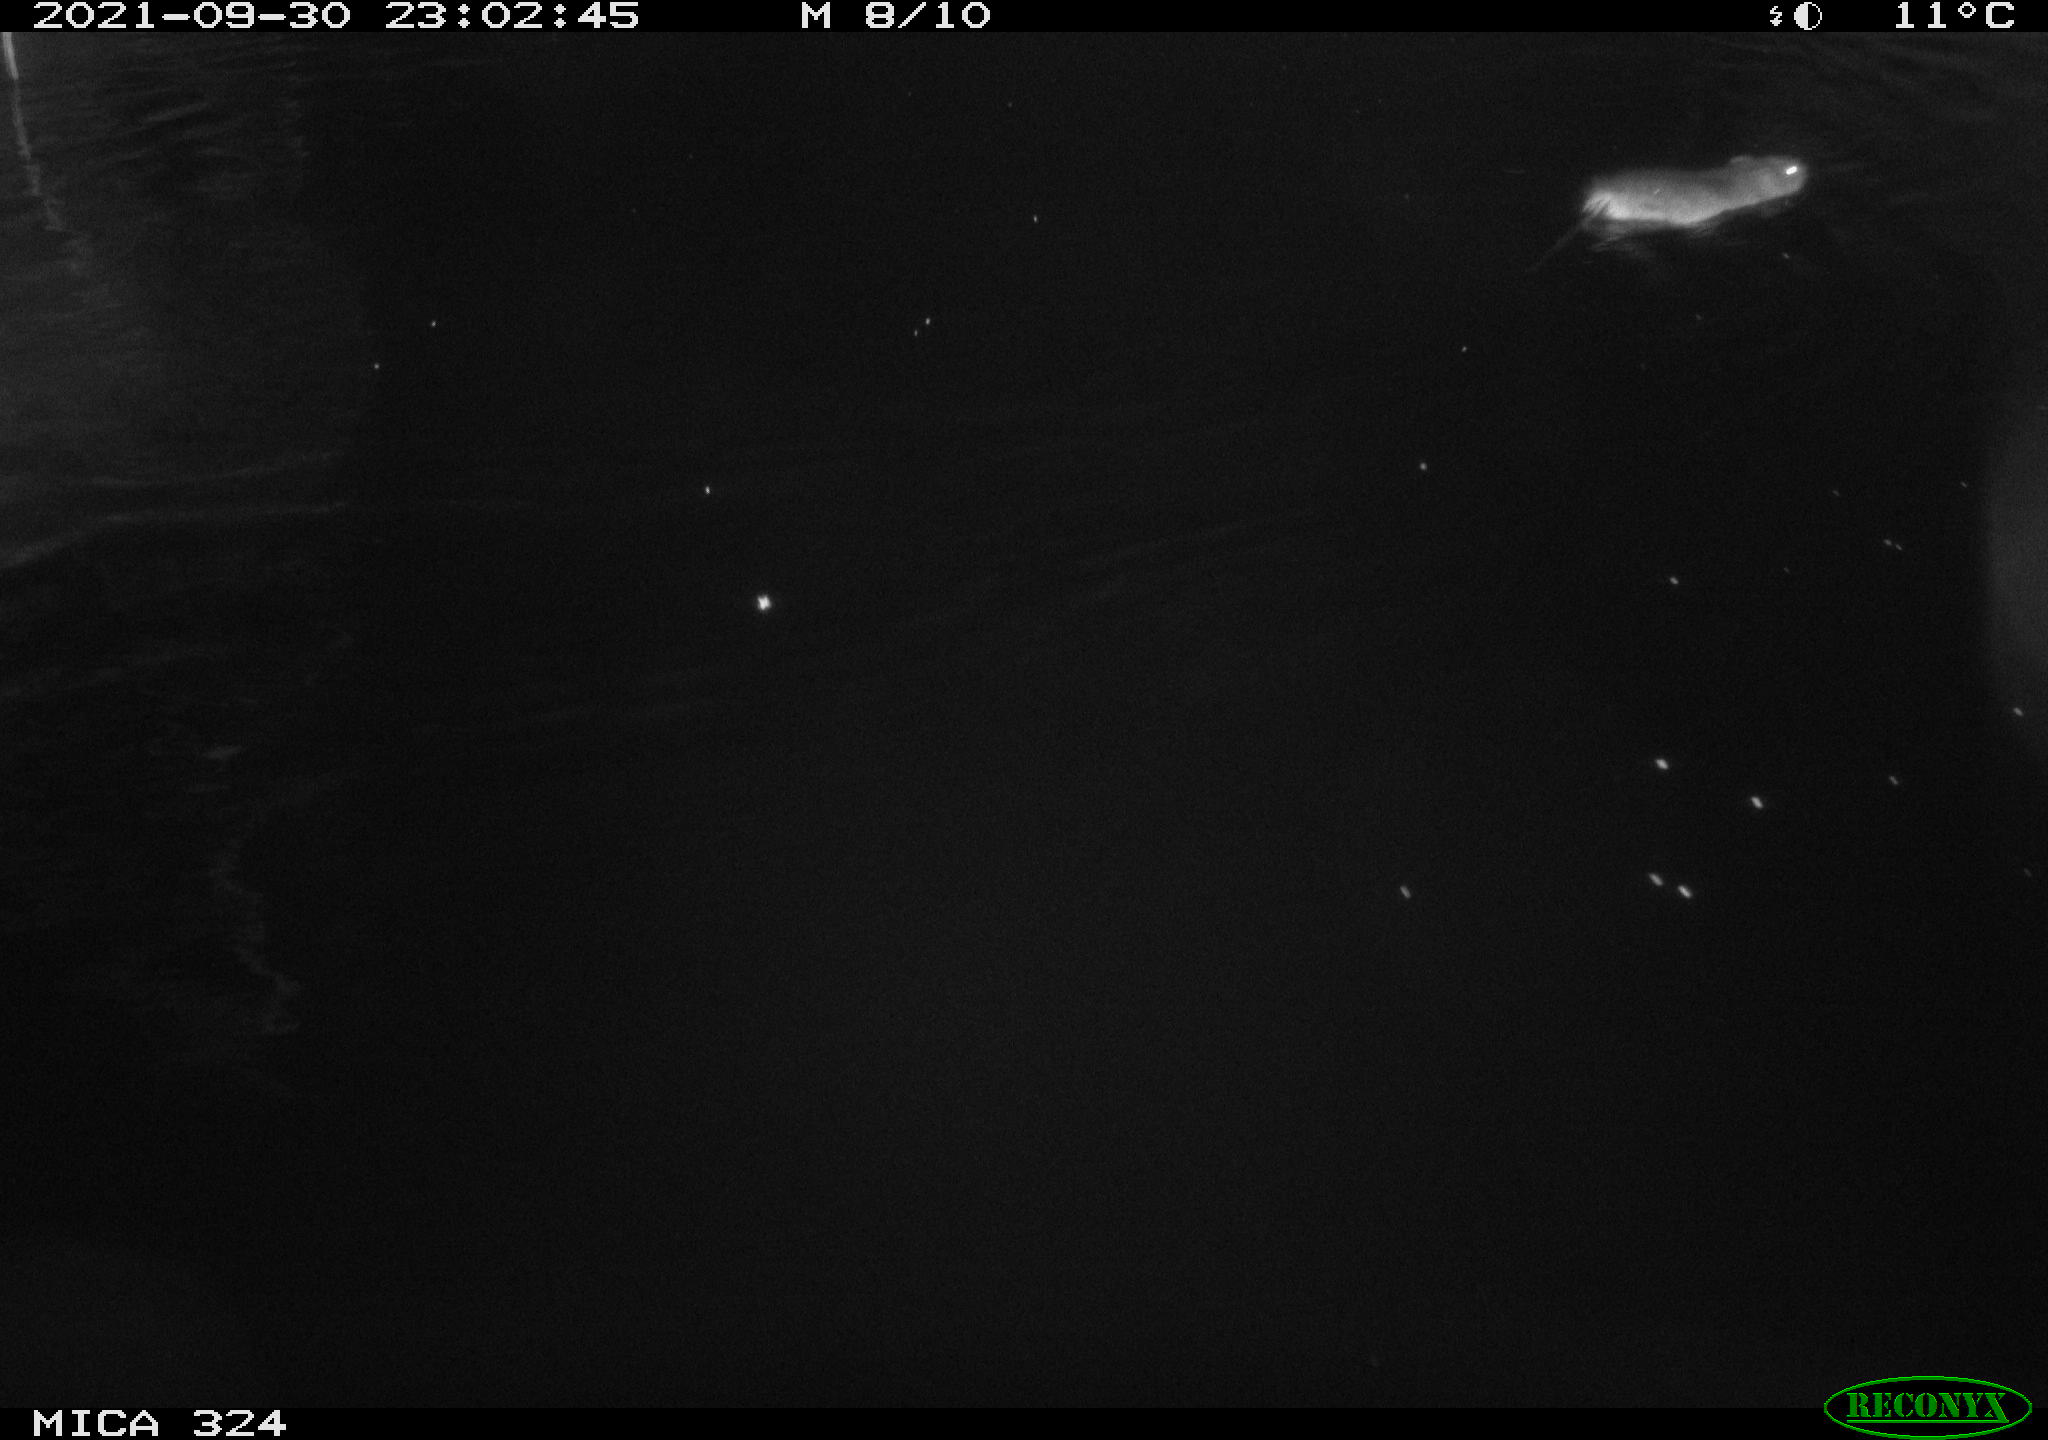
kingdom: Animalia
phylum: Chordata
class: Mammalia
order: Rodentia
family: Cricetidae
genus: Ondatra
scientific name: Ondatra zibethicus
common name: Muskrat
